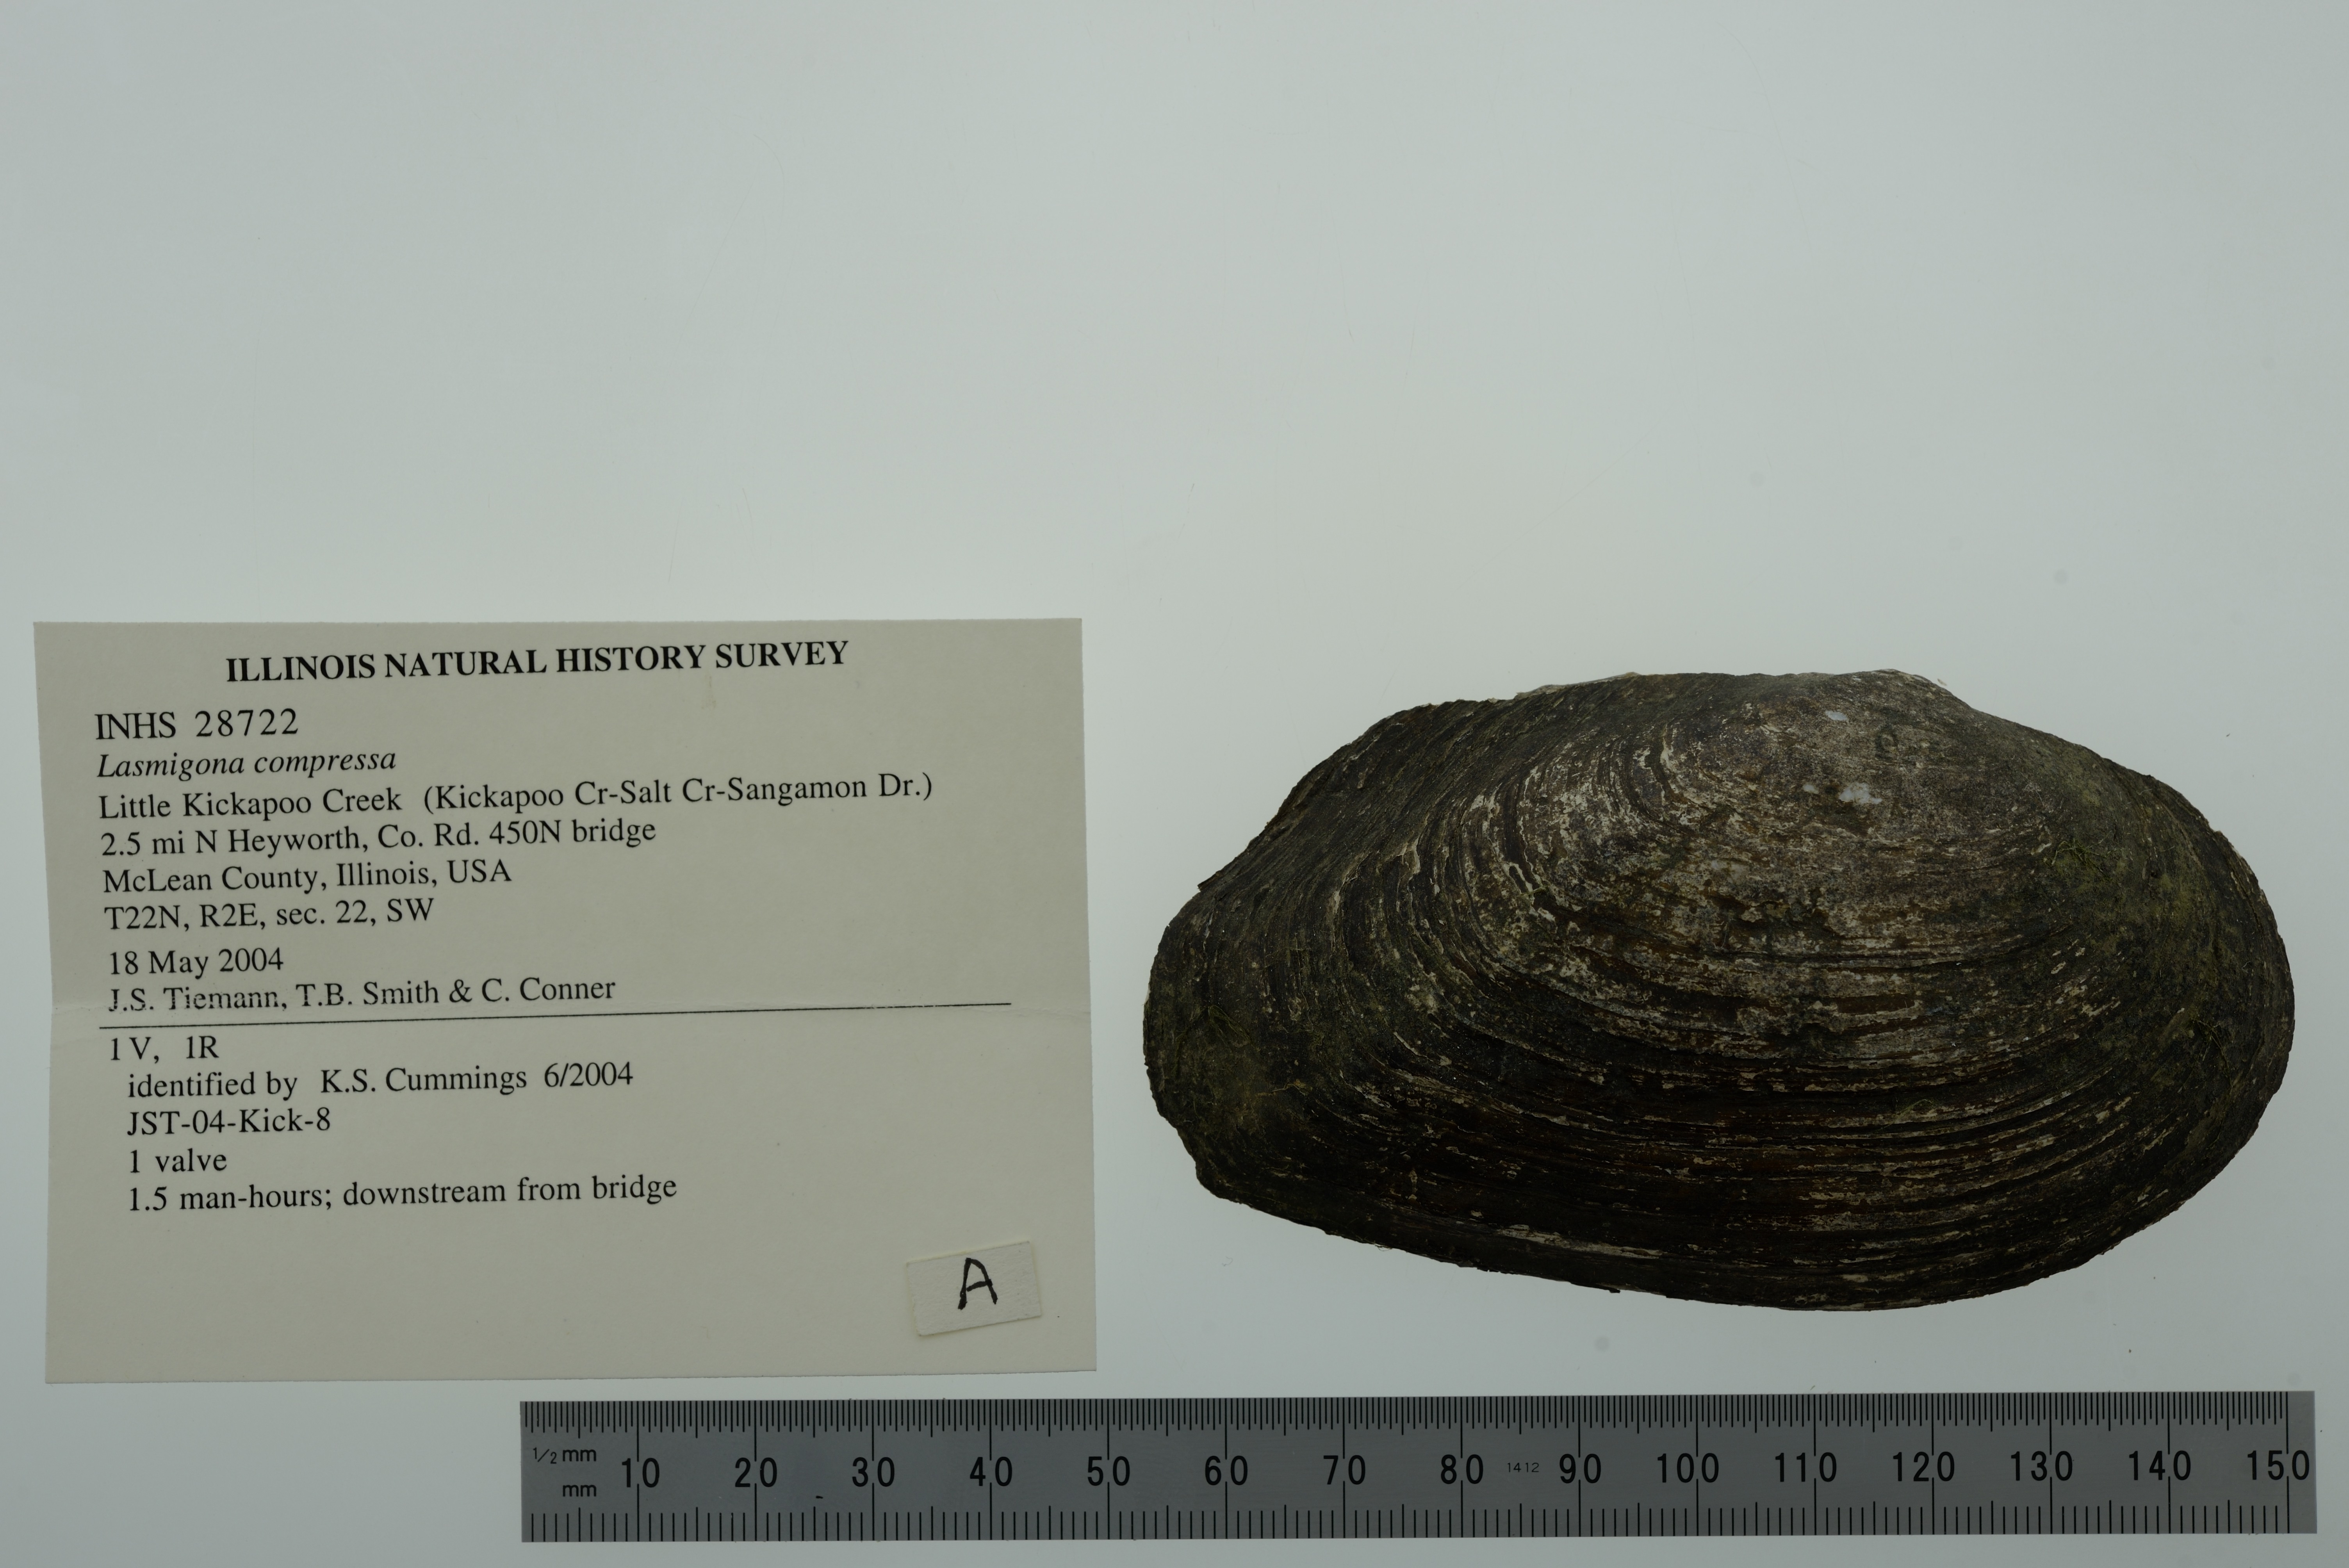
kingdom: Animalia
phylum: Mollusca
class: Bivalvia
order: Unionida
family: Unionidae
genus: Lasmigona
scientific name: Lasmigona compressa
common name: Creek heelsplitter
